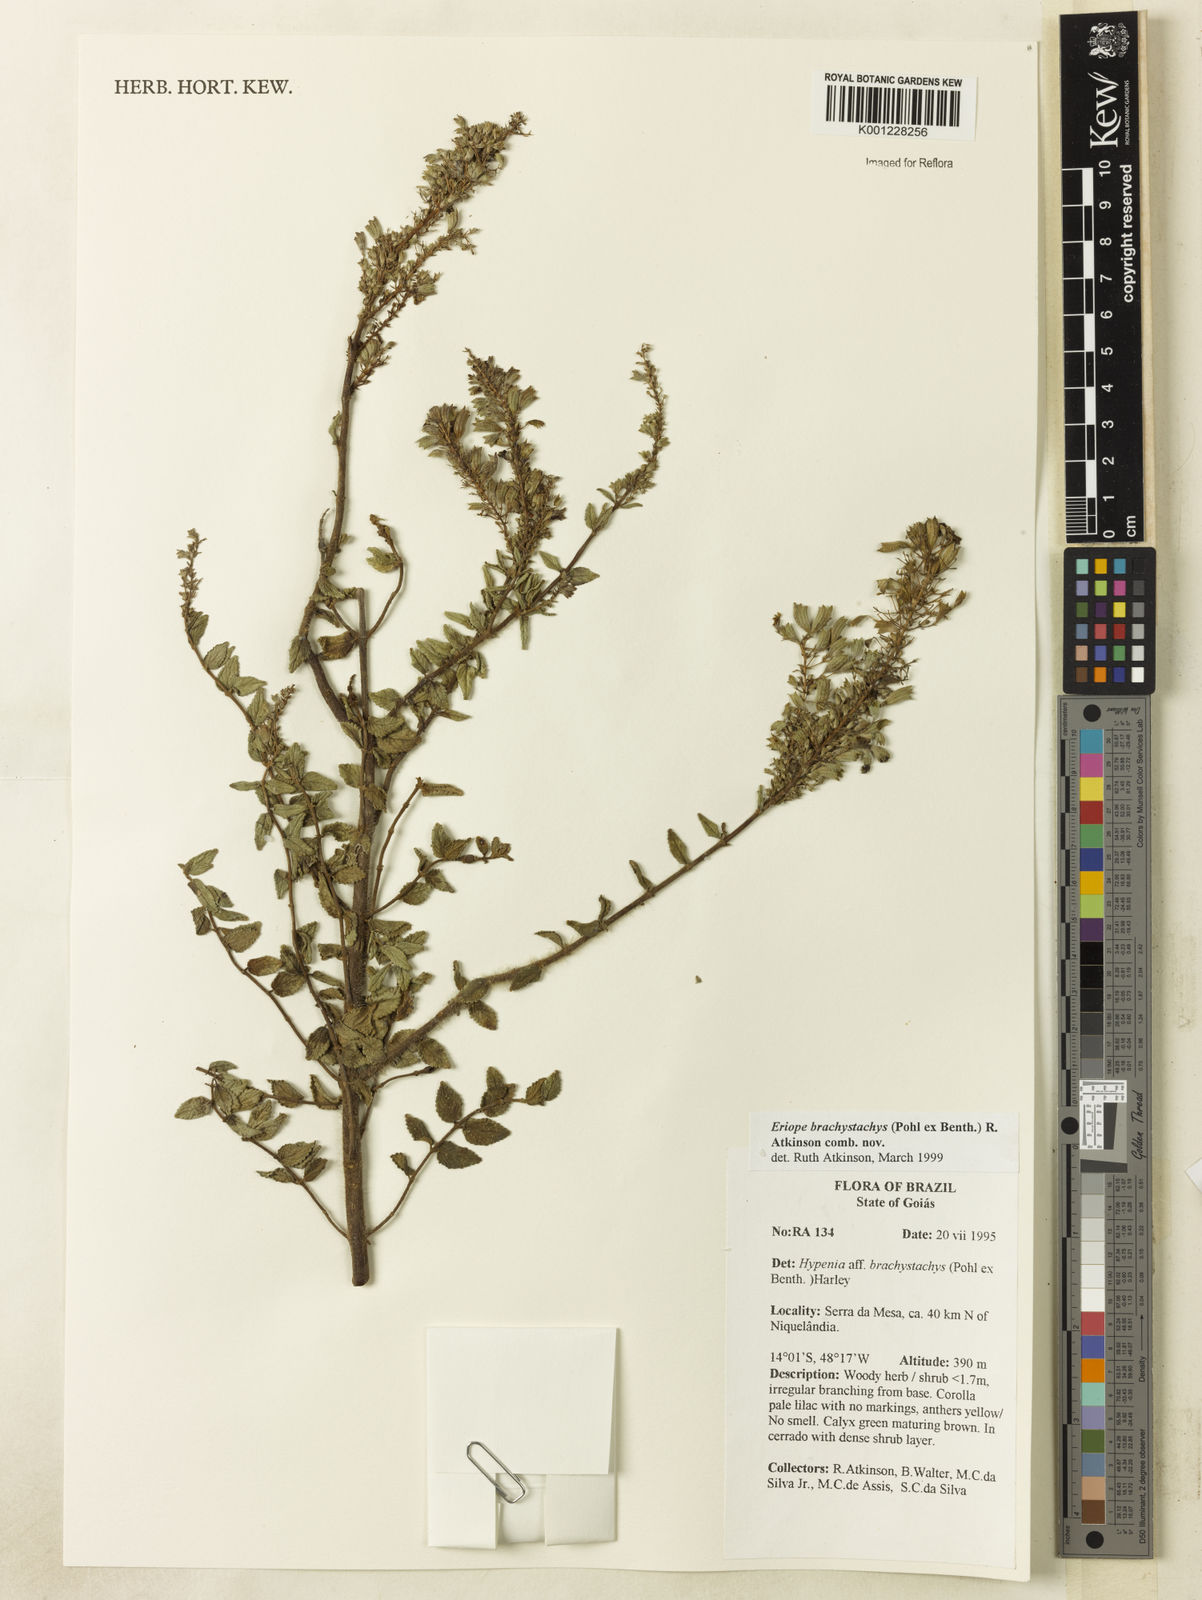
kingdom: Plantae
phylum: Tracheophyta
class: Magnoliopsida
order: Lamiales
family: Lamiaceae
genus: Hypenia
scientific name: Hypenia brachystachys
